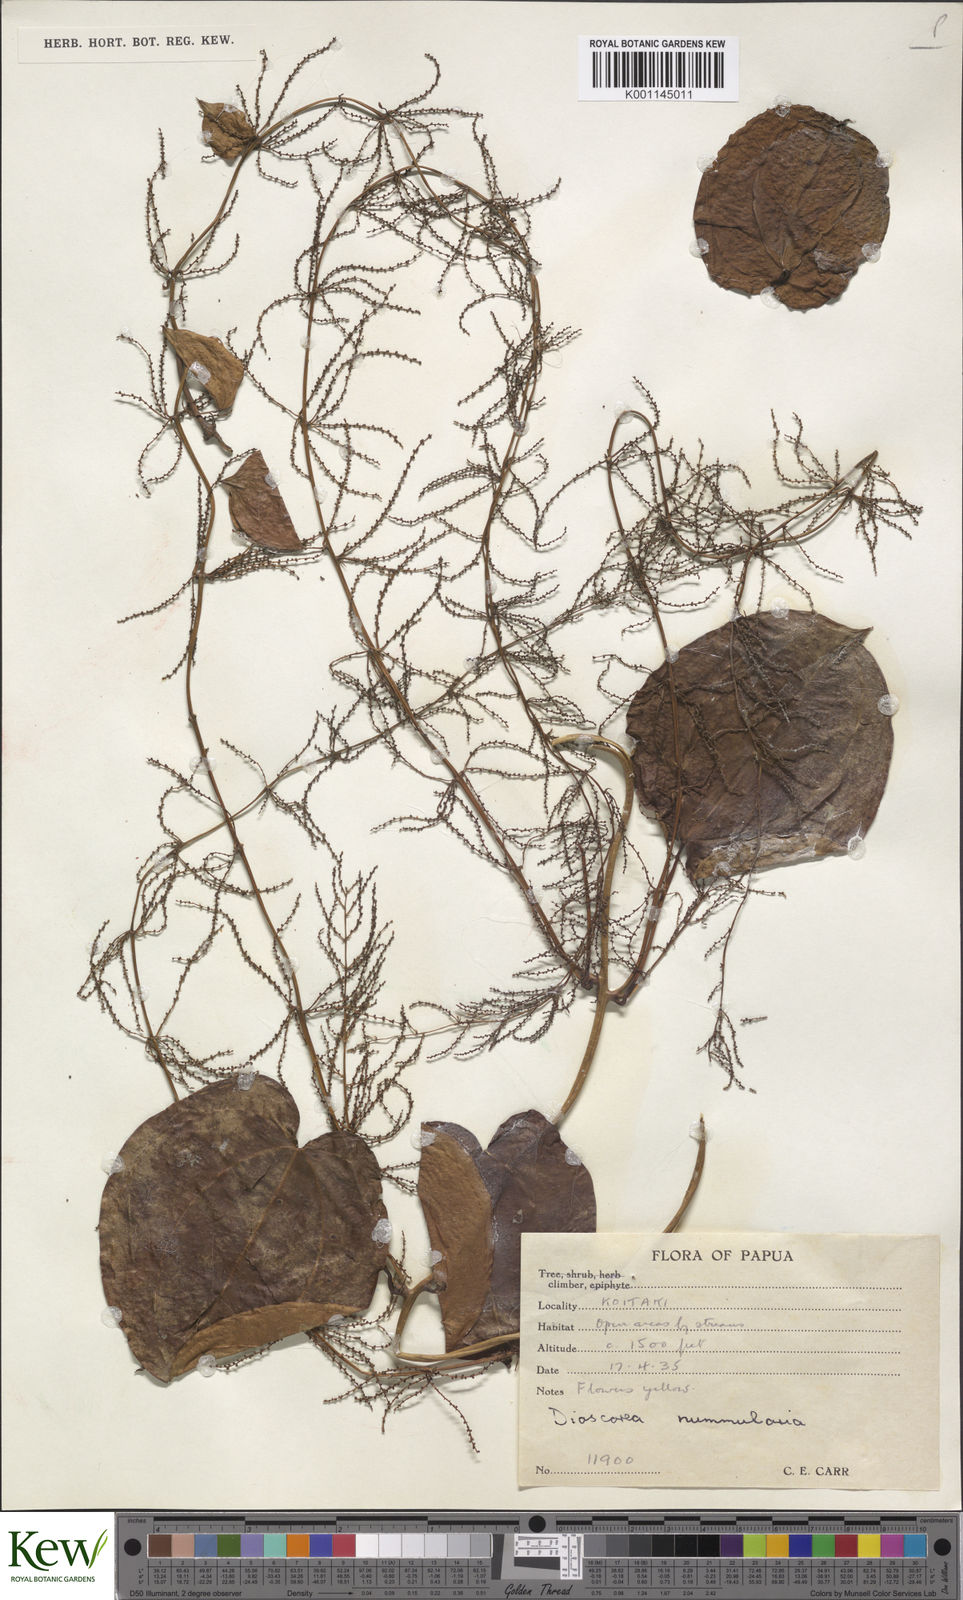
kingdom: Plantae
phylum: Tracheophyta
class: Liliopsida
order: Dioscoreales
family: Dioscoreaceae
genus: Dioscorea
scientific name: Dioscorea nummularia
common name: Pacific yam
